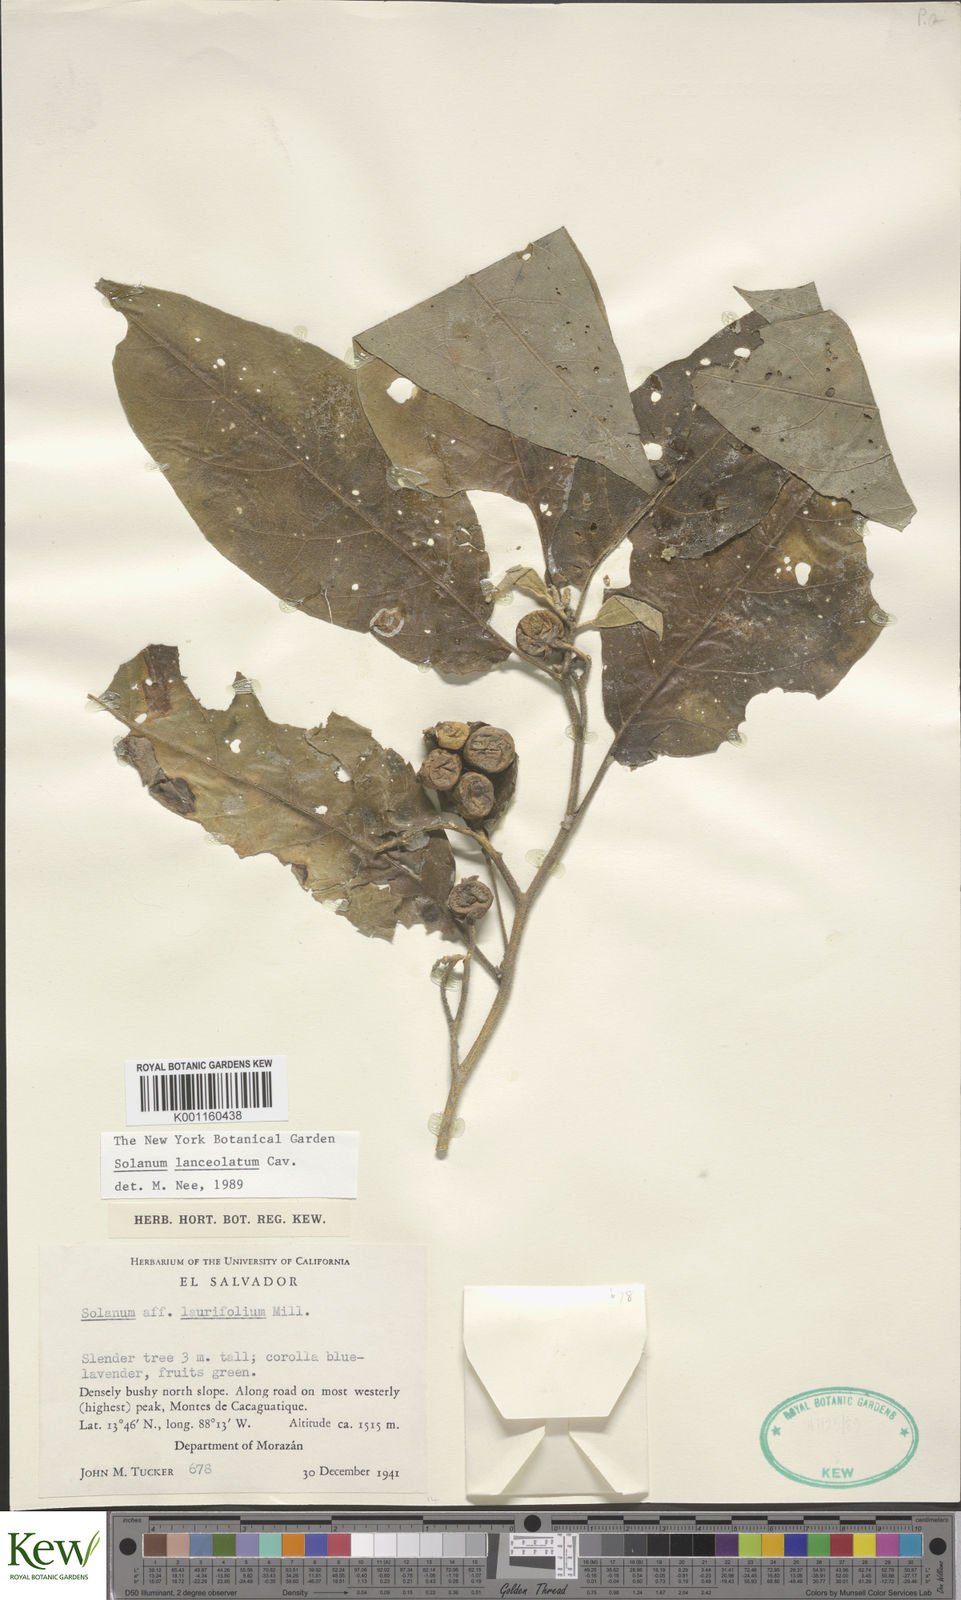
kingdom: Plantae
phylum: Tracheophyta
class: Magnoliopsida
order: Solanales
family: Solanaceae
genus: Solanum
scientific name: Solanum lanceolatum
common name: Orangeberry nightshade
